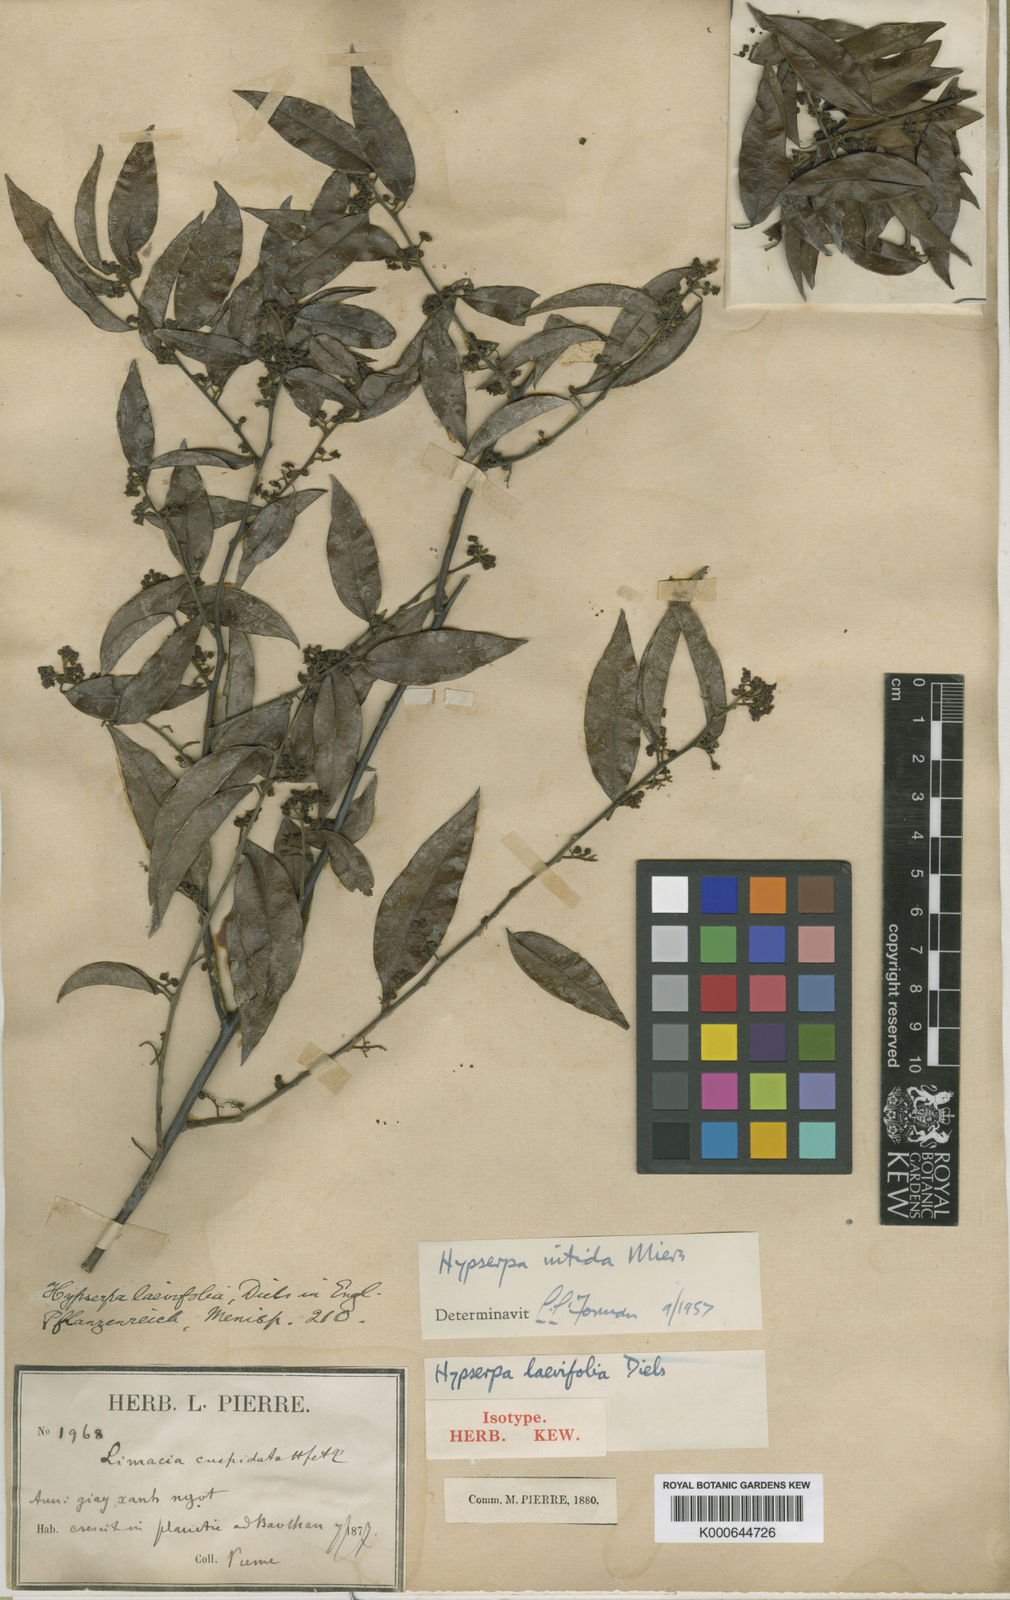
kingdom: Plantae
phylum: Tracheophyta
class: Magnoliopsida
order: Ranunculales
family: Menispermaceae
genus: Hypserpa
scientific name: Hypserpa
